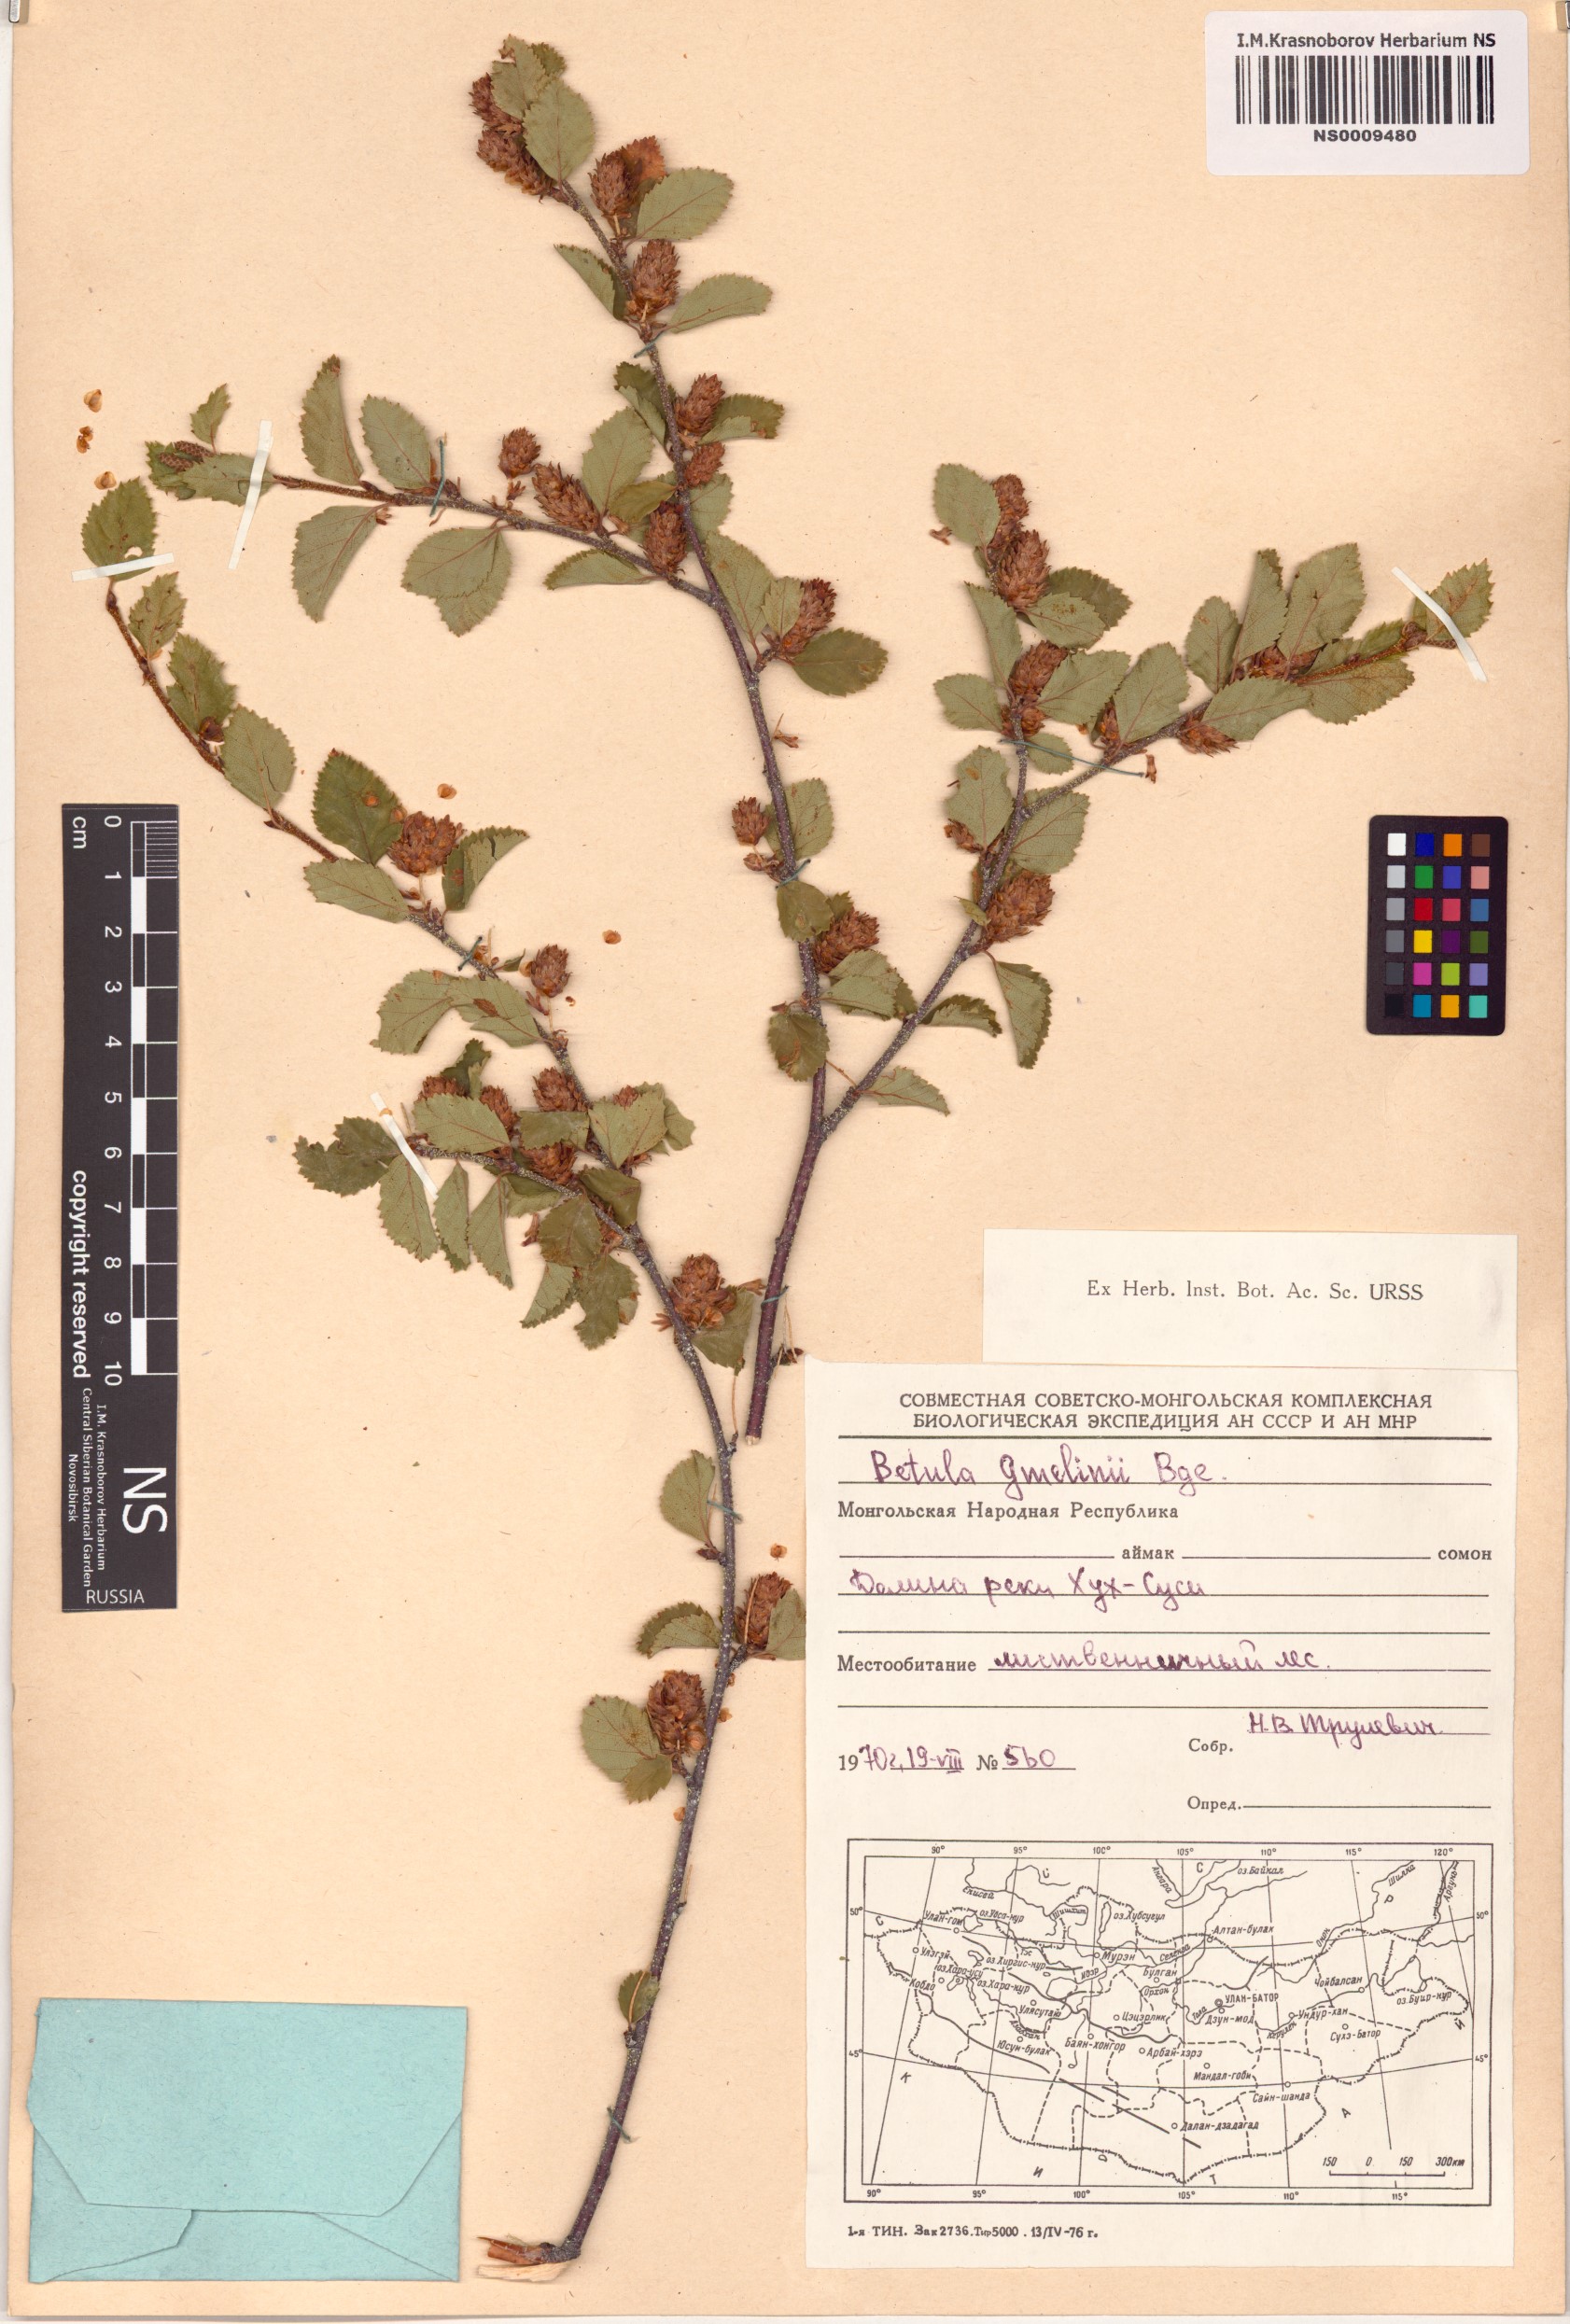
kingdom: Plantae
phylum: Tracheophyta
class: Magnoliopsida
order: Fagales
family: Betulaceae
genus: Betula
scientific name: Betula gmelinii
